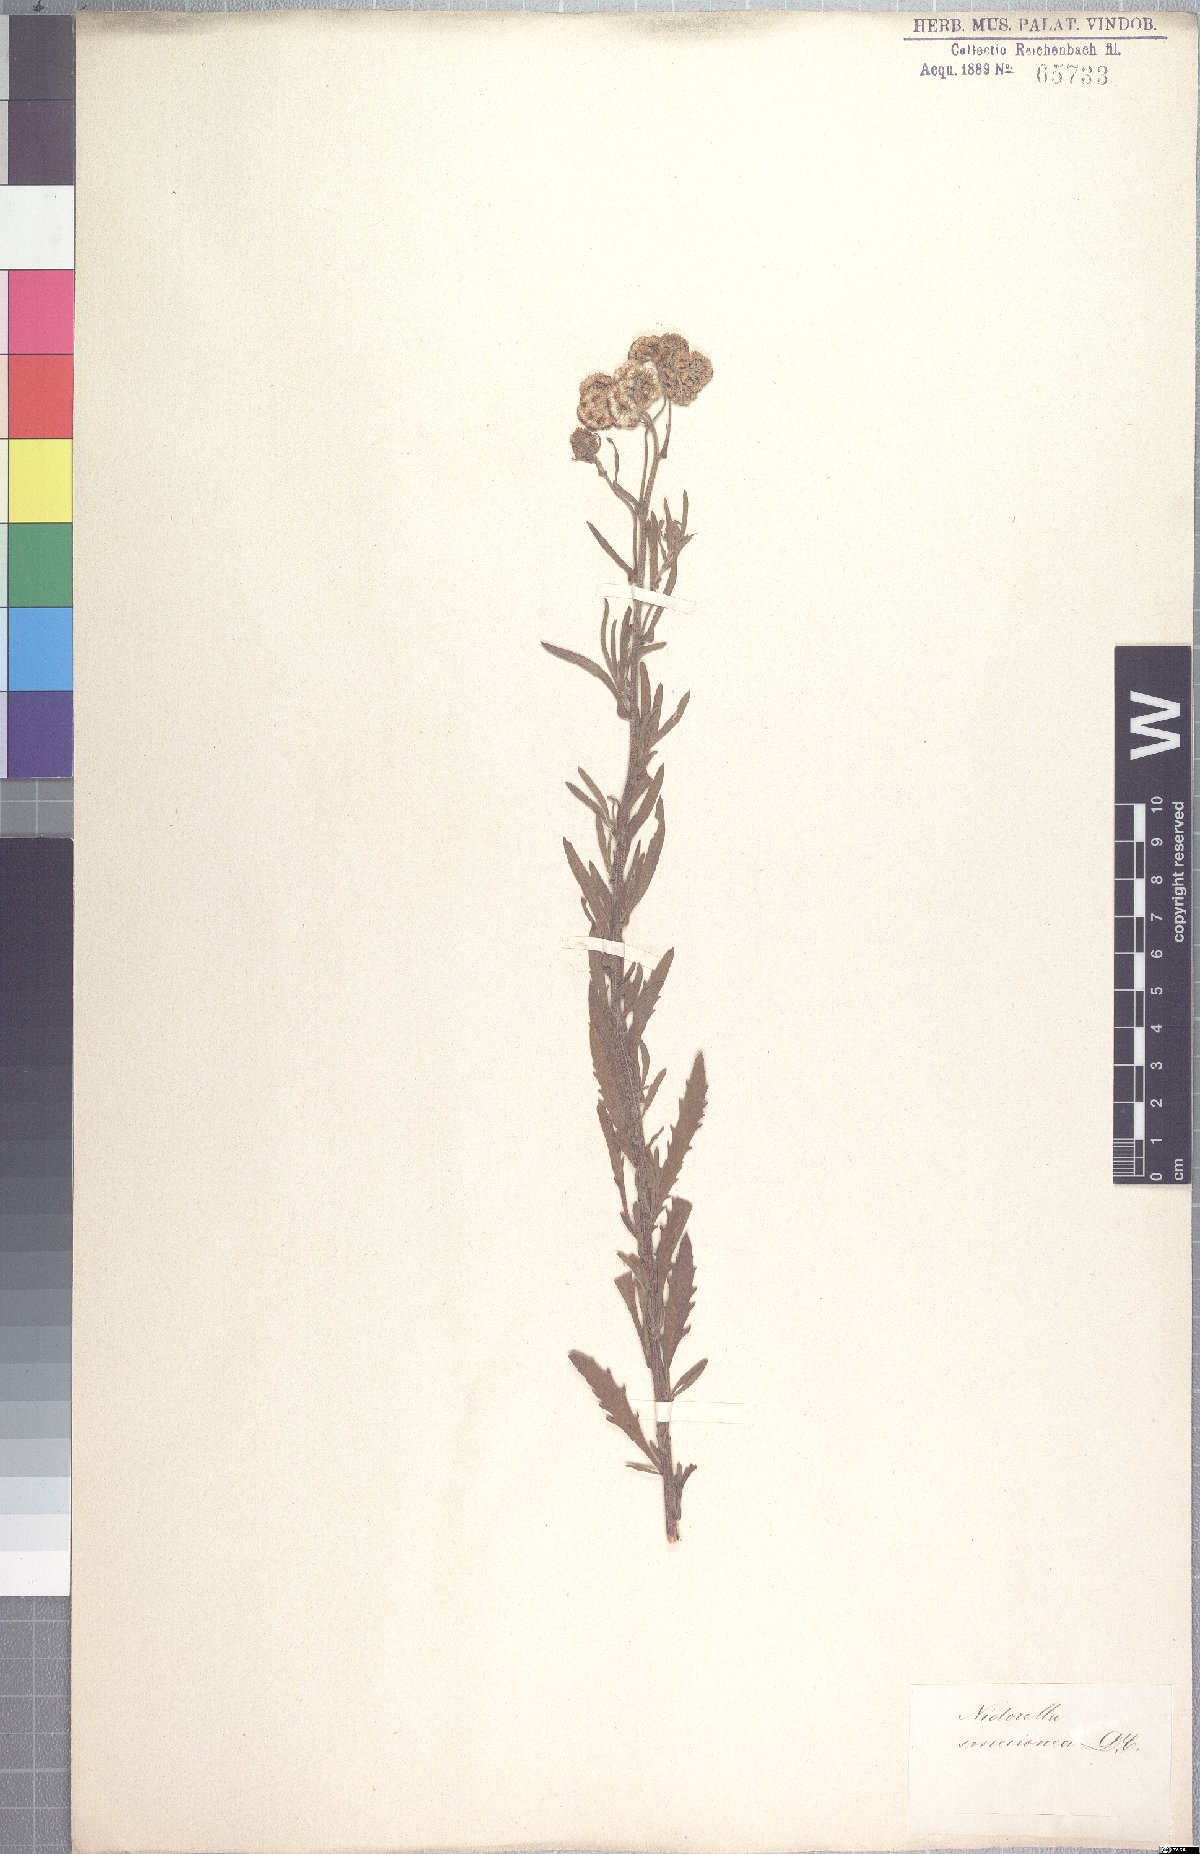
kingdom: Plantae
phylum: Tracheophyta
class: Magnoliopsida
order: Asterales
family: Asteraceae
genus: Nidorella
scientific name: Nidorella auriculata
